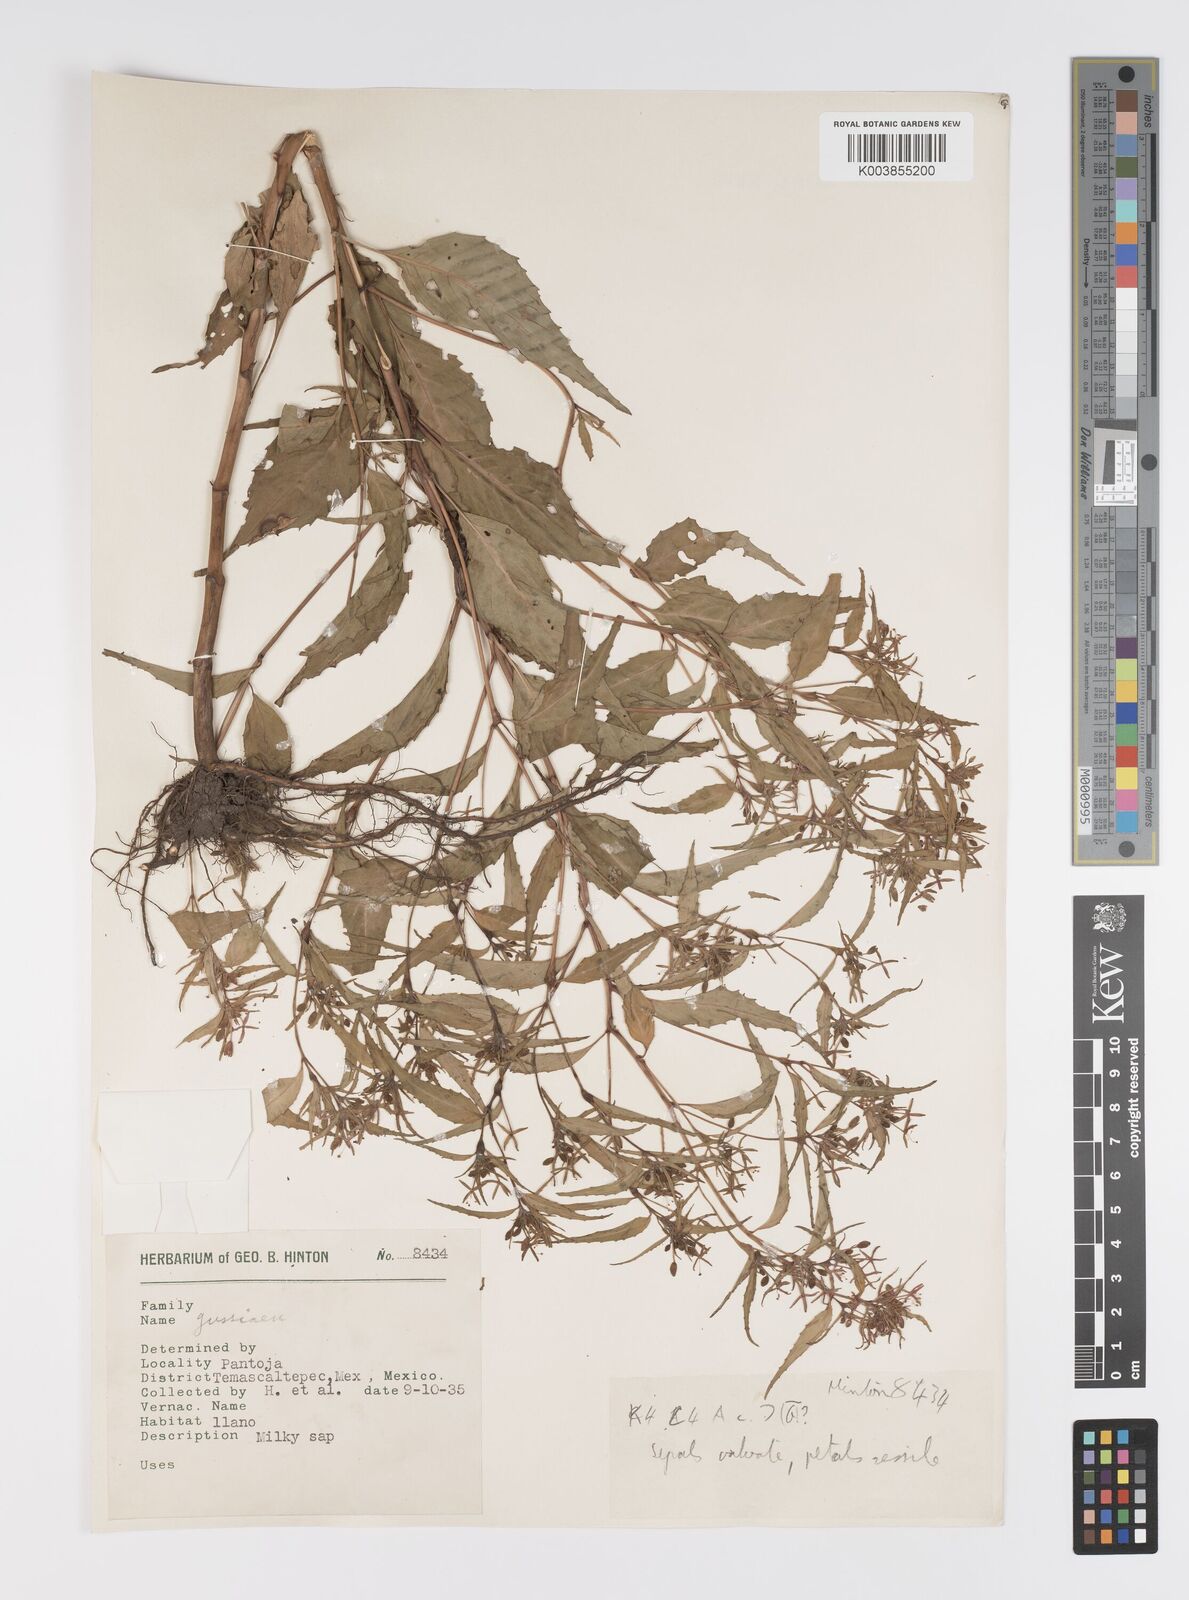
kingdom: Plantae
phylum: Tracheophyta
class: Magnoliopsida
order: Myrtales
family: Onagraceae
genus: Ludwigia
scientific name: Ludwigia
